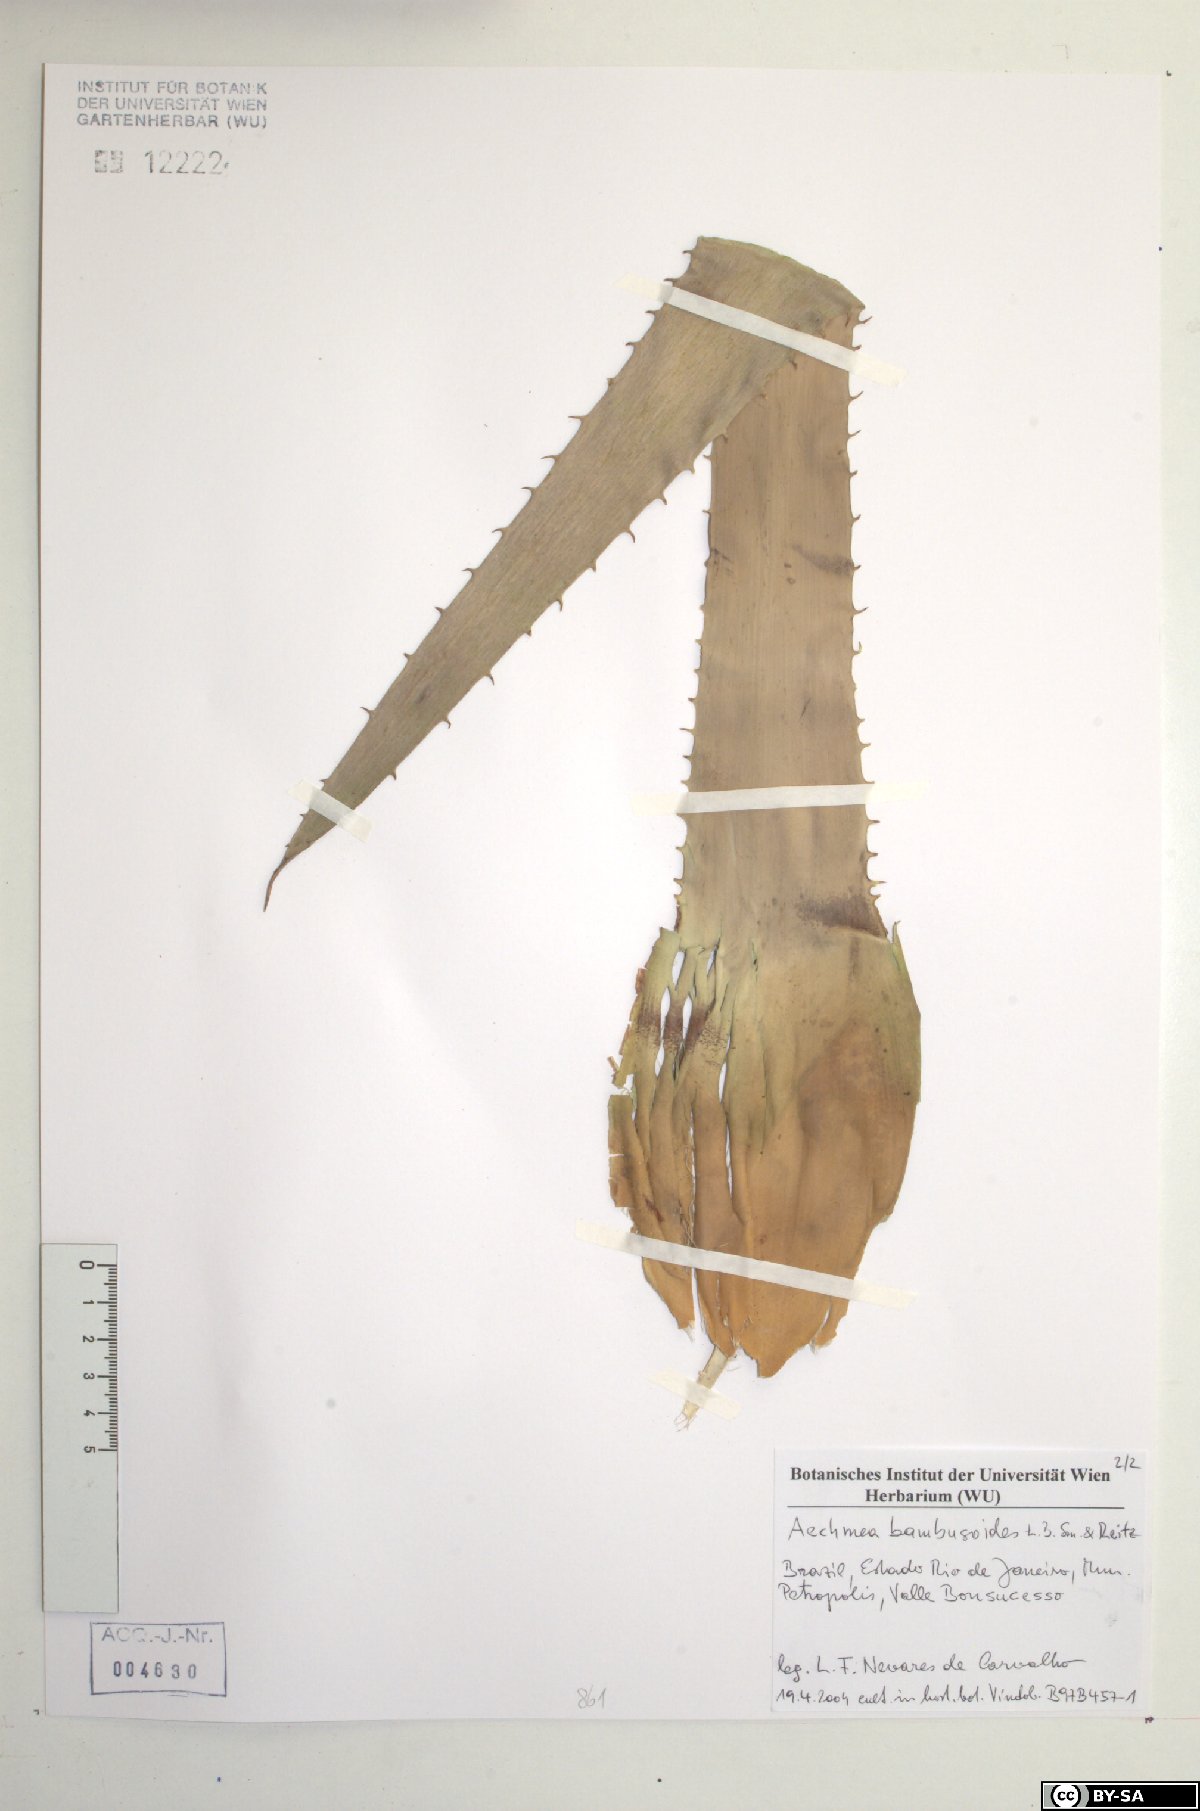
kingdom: Plantae
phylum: Tracheophyta
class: Liliopsida
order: Poales
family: Bromeliaceae
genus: Aechmea
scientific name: Aechmea bambusoides
